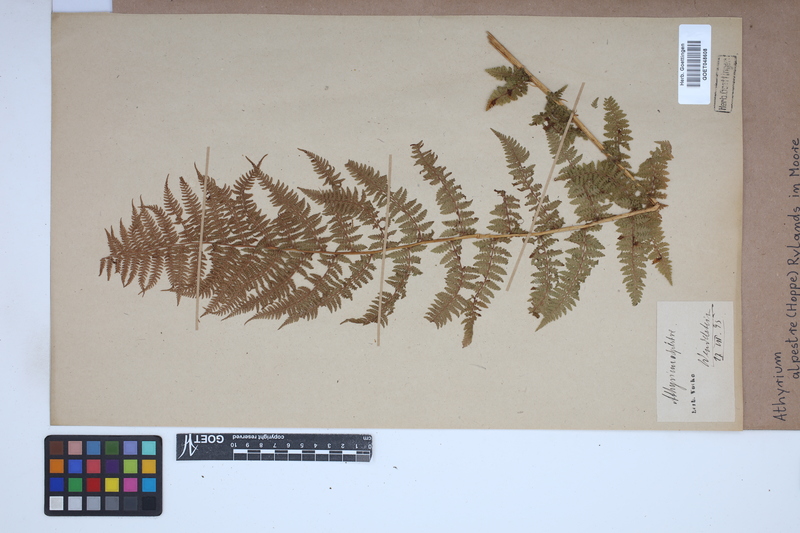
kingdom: Plantae
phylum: Tracheophyta
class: Polypodiopsida
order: Polypodiales
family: Athyriaceae
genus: Pseudathyrium
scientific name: Pseudathyrium alpestre
